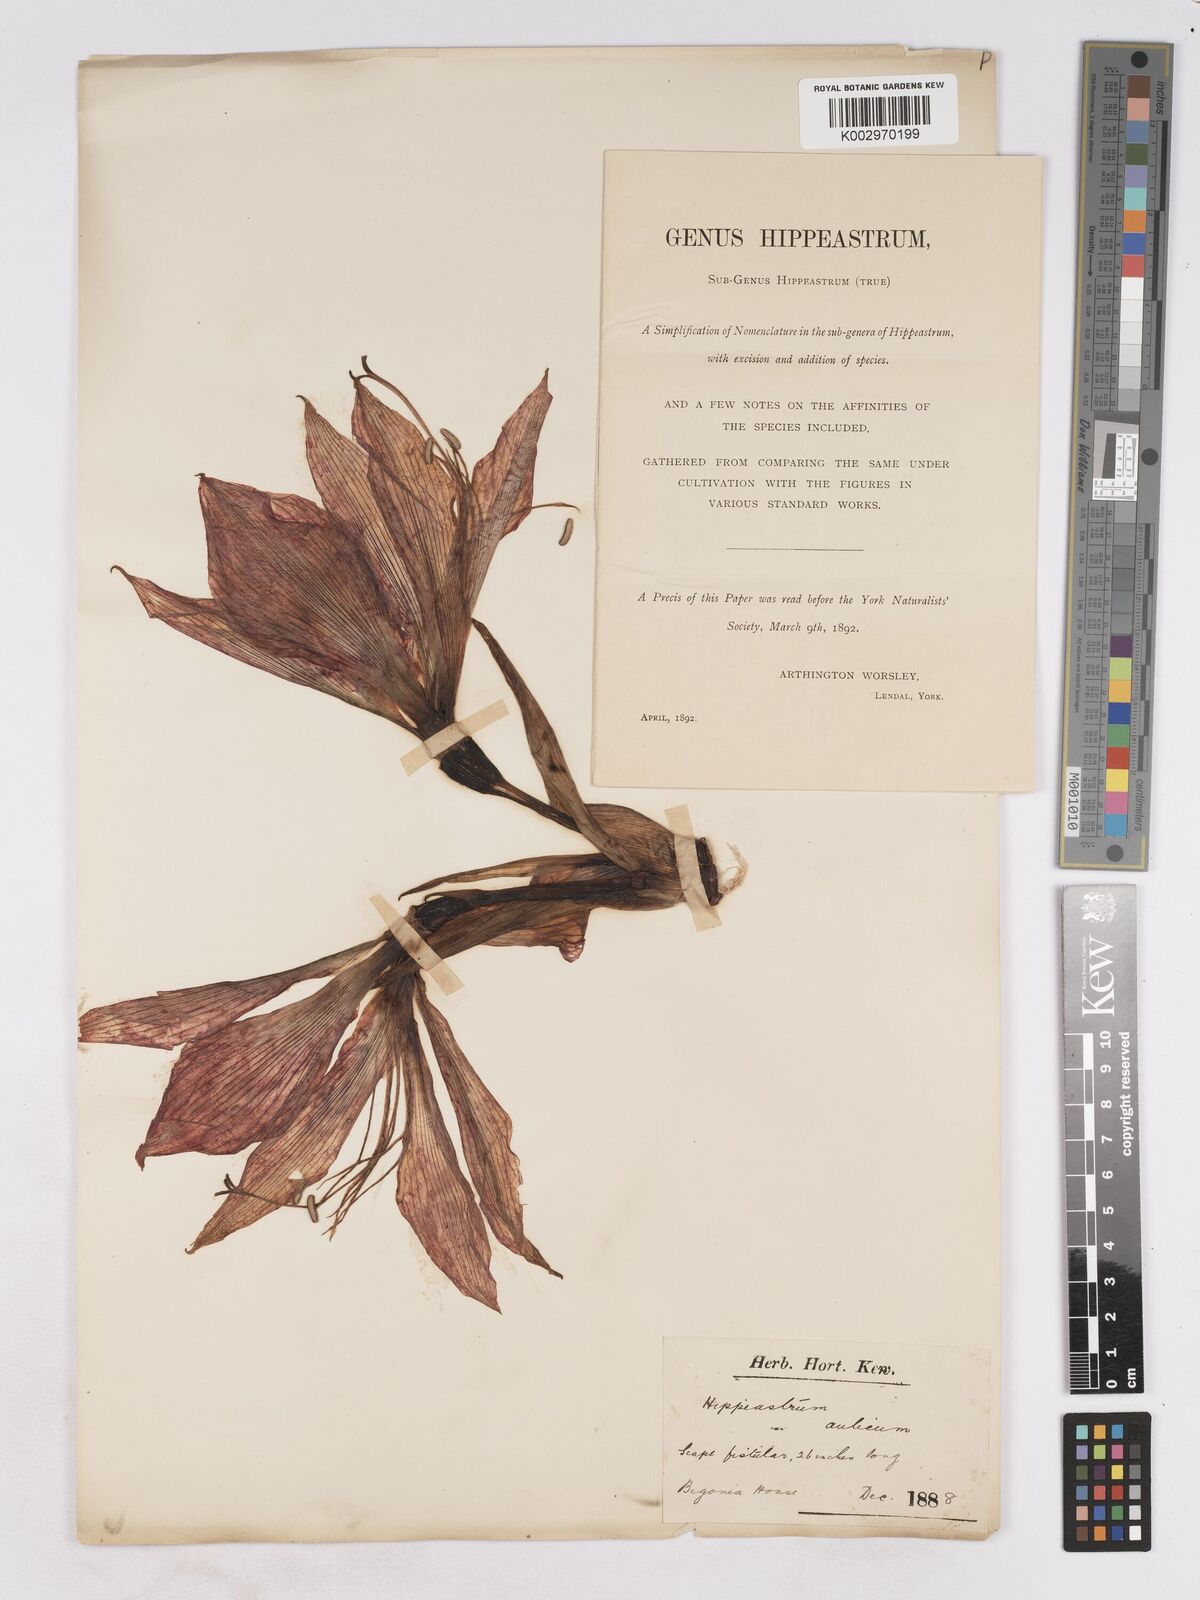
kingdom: Plantae
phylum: Tracheophyta
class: Liliopsida
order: Asparagales
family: Amaryllidaceae
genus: Hippeastrum
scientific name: Hippeastrum aulicum
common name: Lily-of-the-palace
